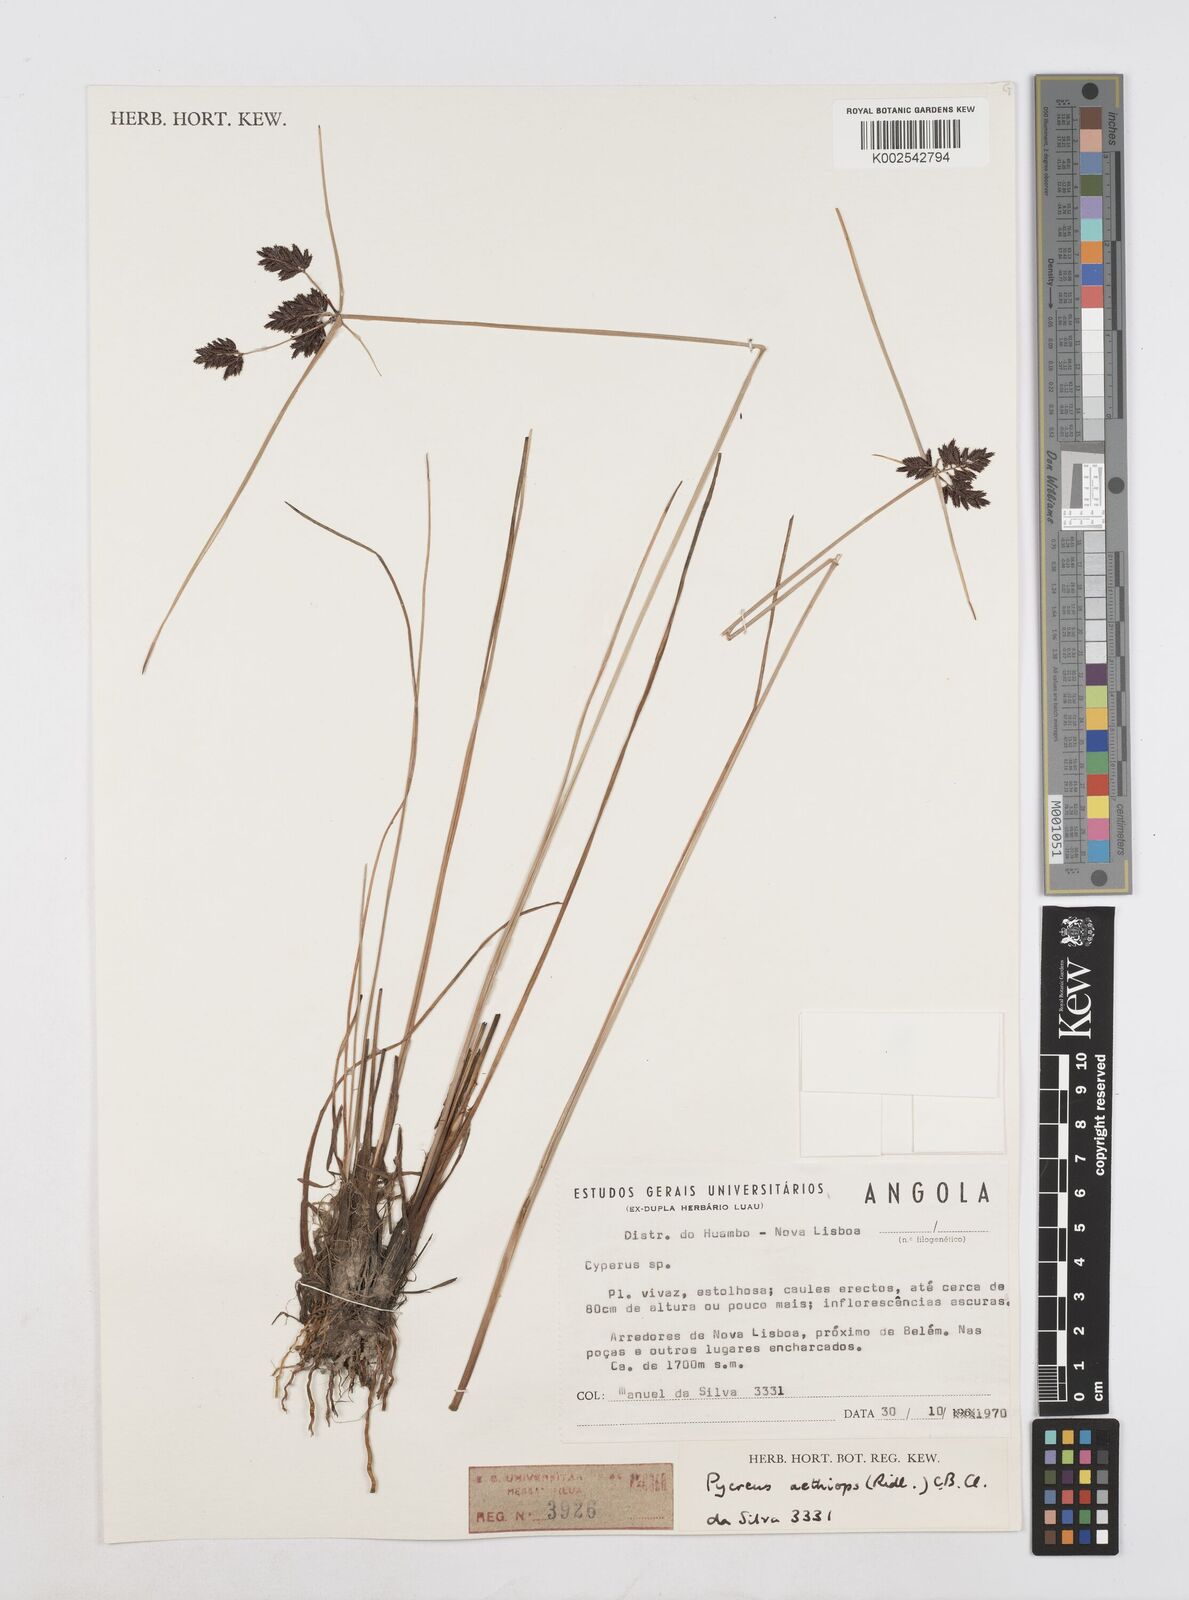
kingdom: Plantae
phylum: Tracheophyta
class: Liliopsida
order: Poales
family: Cyperaceae
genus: Cyperus
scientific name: Cyperus aethiops
